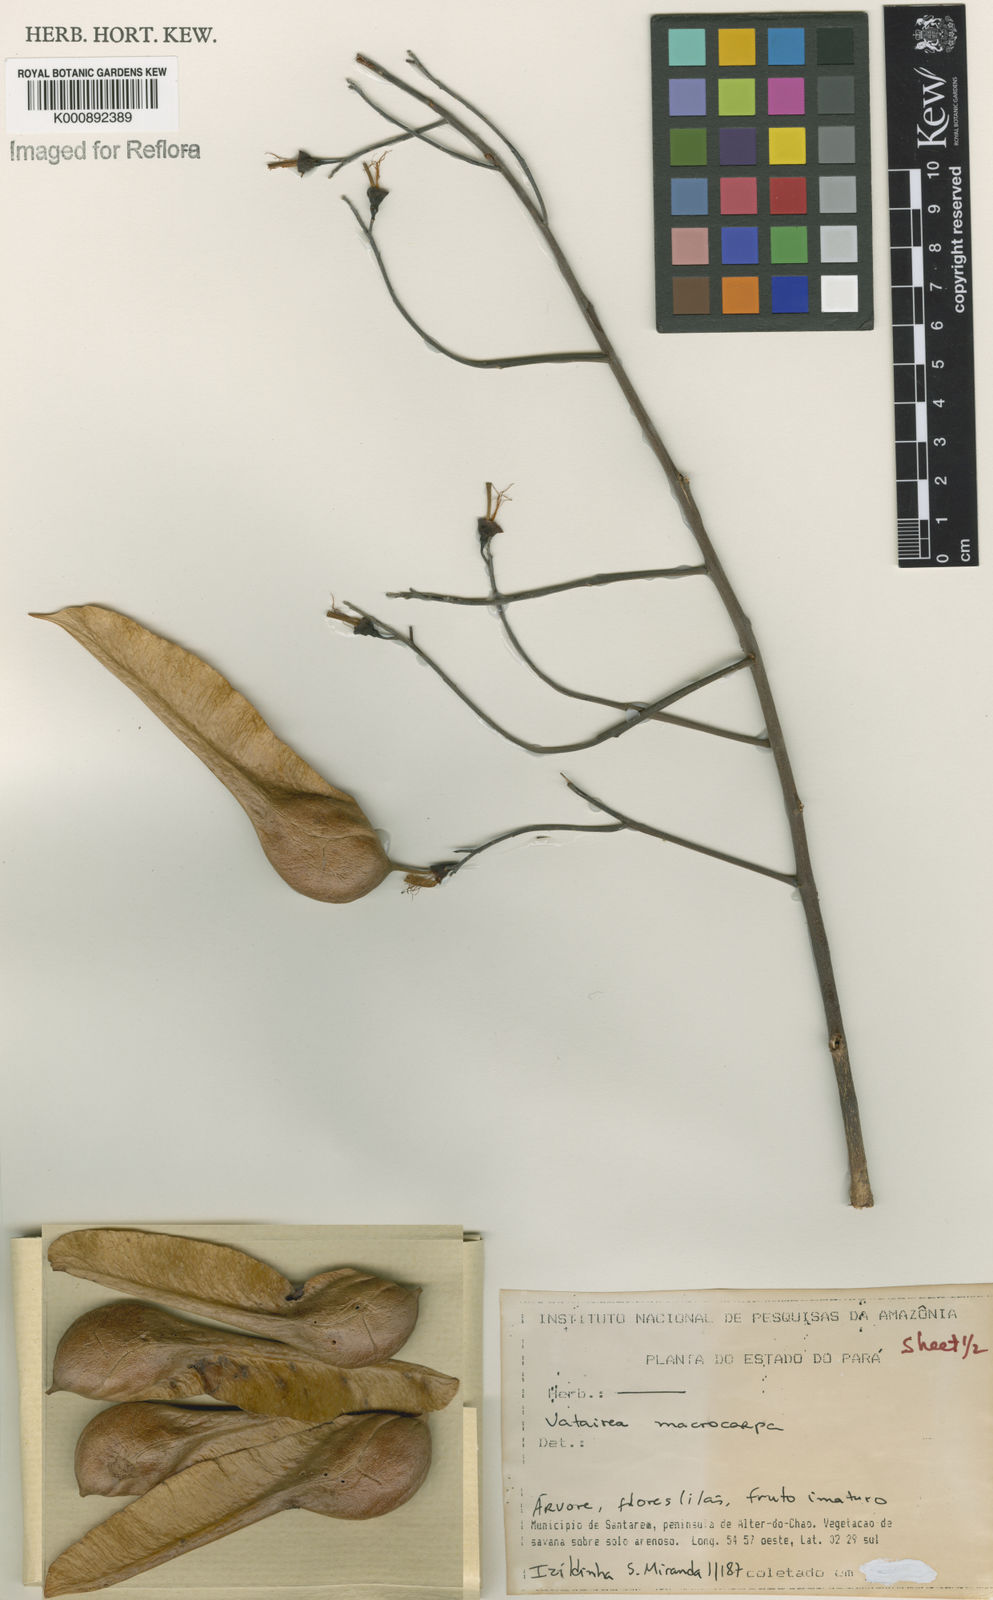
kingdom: Plantae
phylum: Tracheophyta
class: Magnoliopsida
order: Fabales
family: Fabaceae
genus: Vatairea
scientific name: Vatairea macrocarpa
